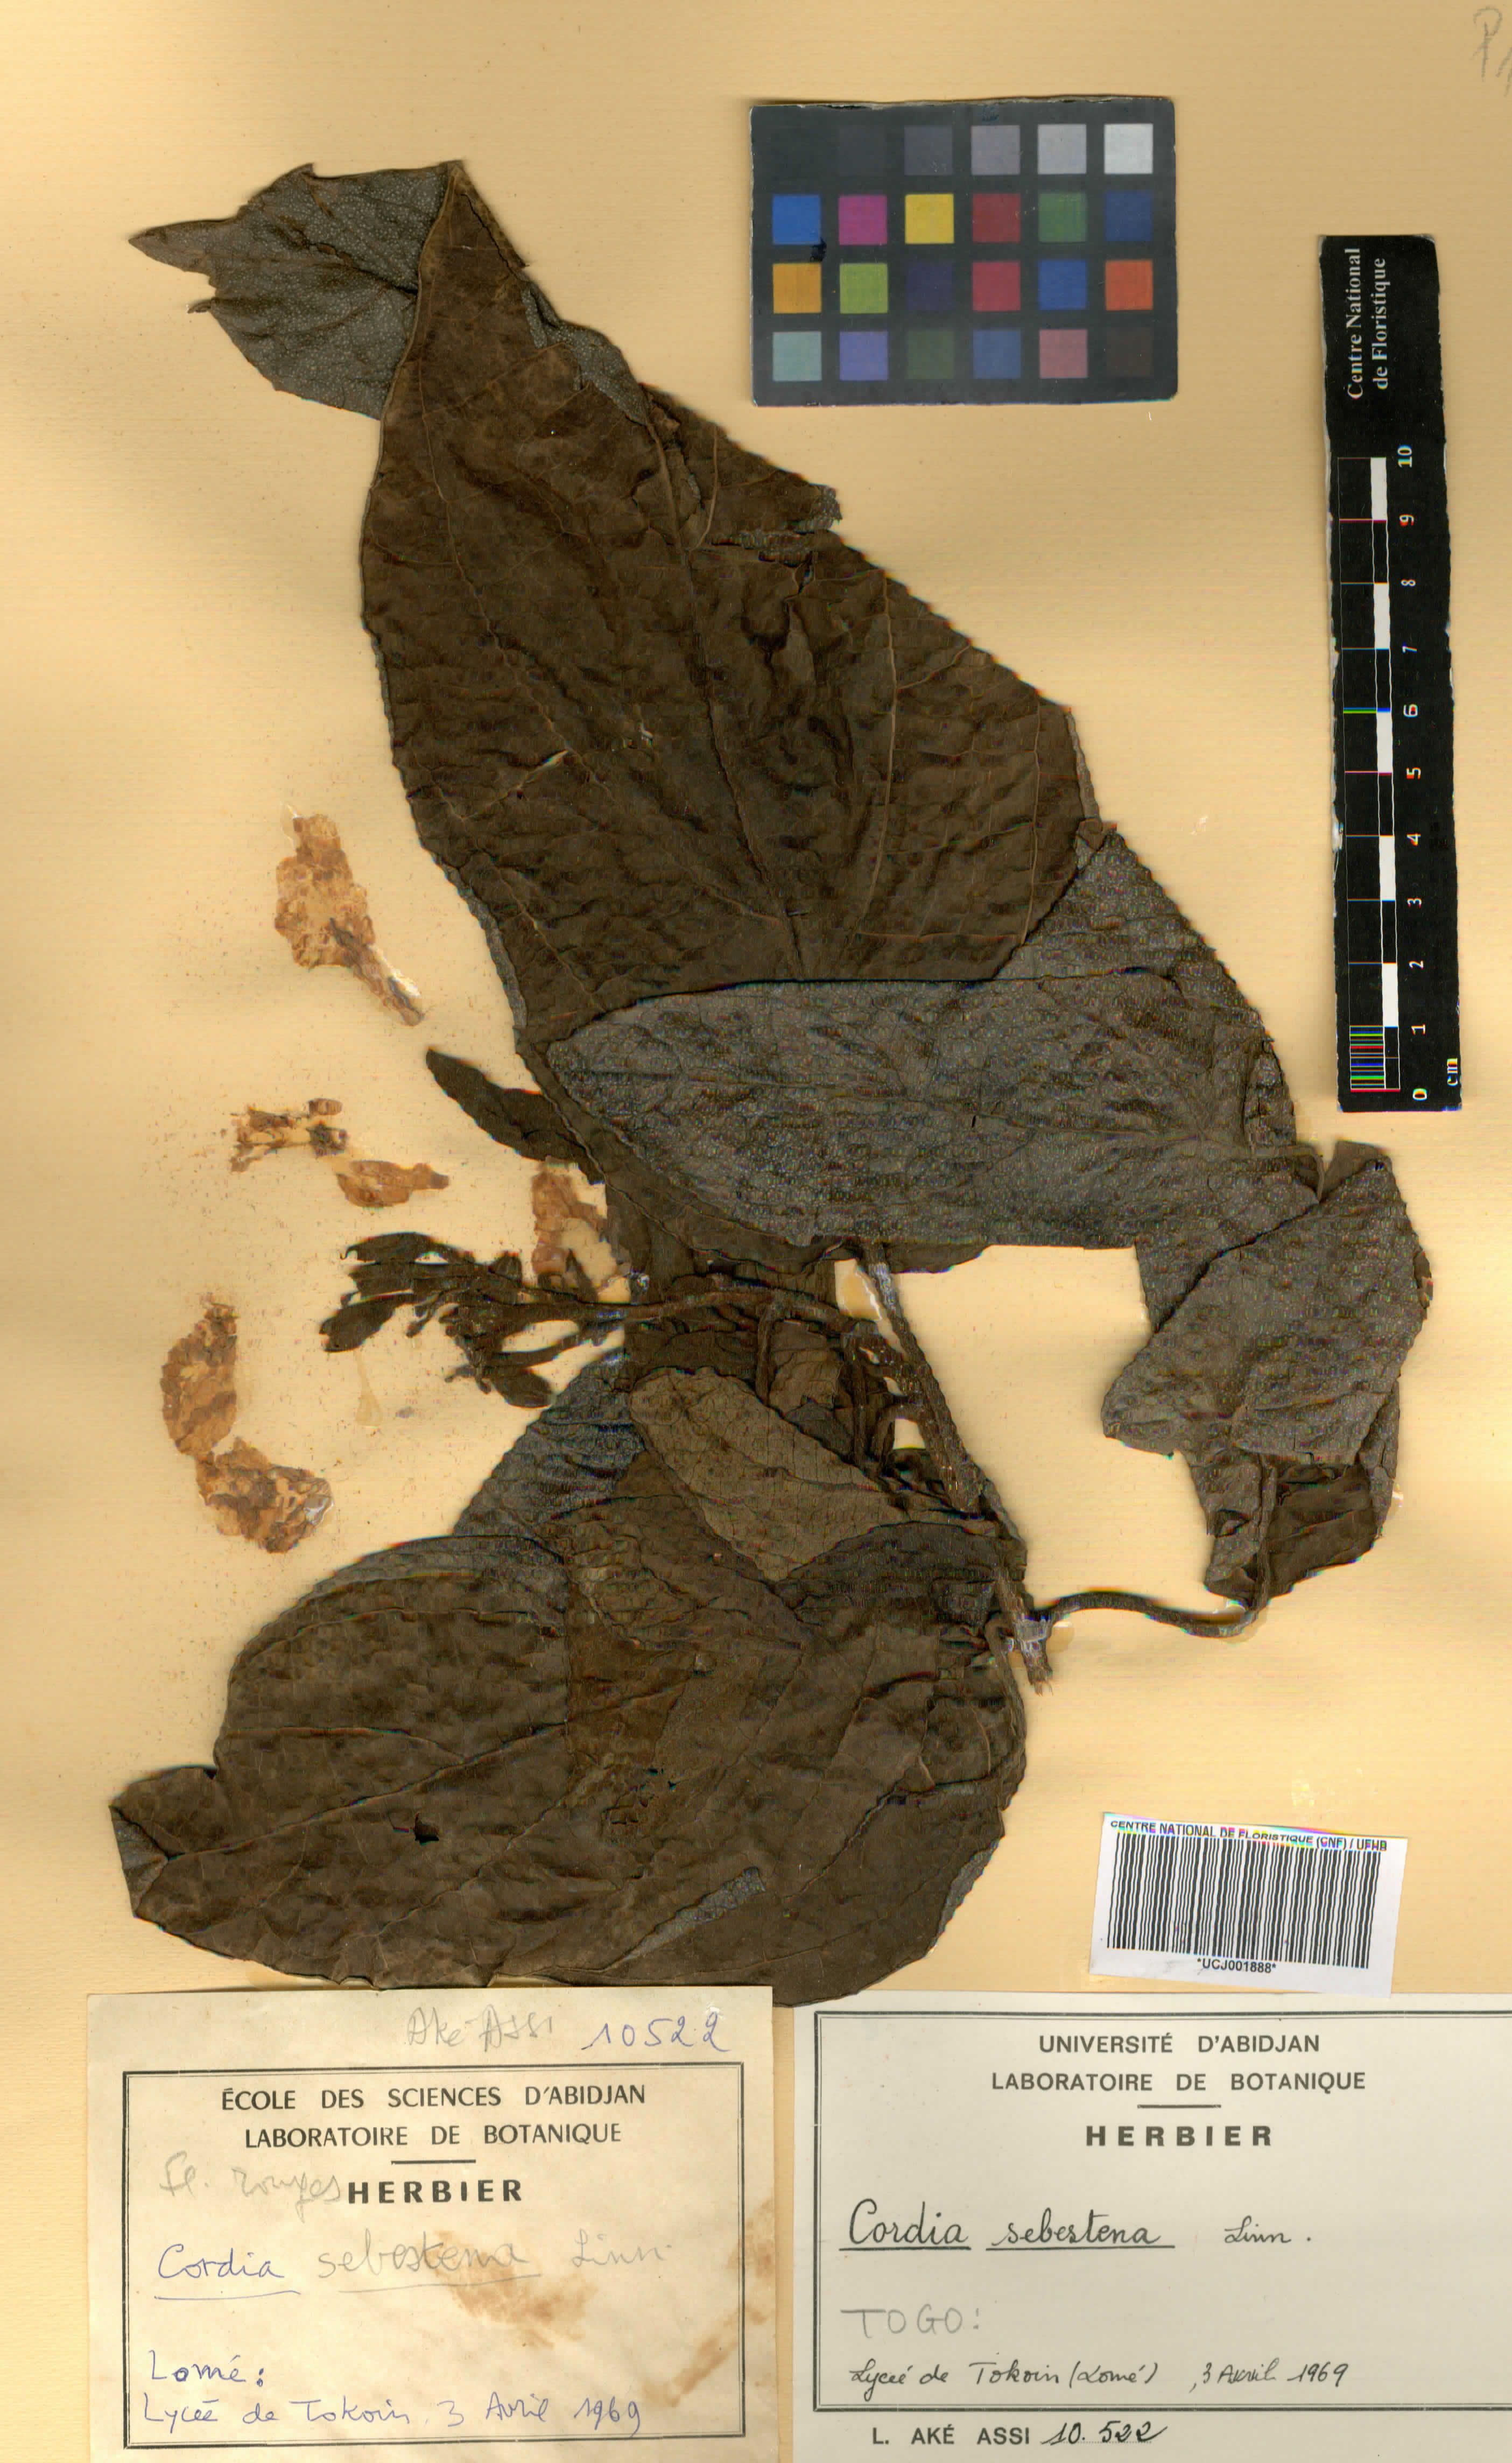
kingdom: Plantae
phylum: Tracheophyta
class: Magnoliopsida
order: Boraginales
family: Cordiaceae
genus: Cordia
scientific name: Cordia sebestena
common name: Largeleaf geigertree
